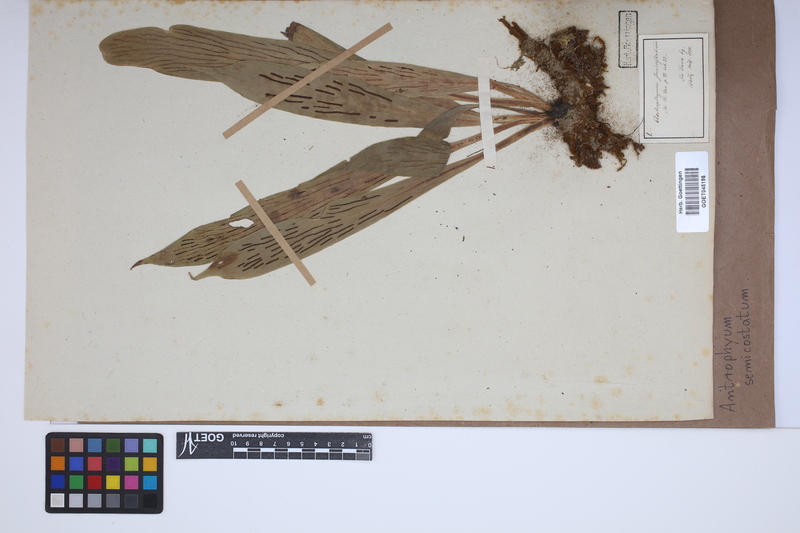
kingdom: Plantae
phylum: Tracheophyta
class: Polypodiopsida
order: Polypodiales
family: Pteridaceae
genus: Antrophyum
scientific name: Antrophyum semicostatum
